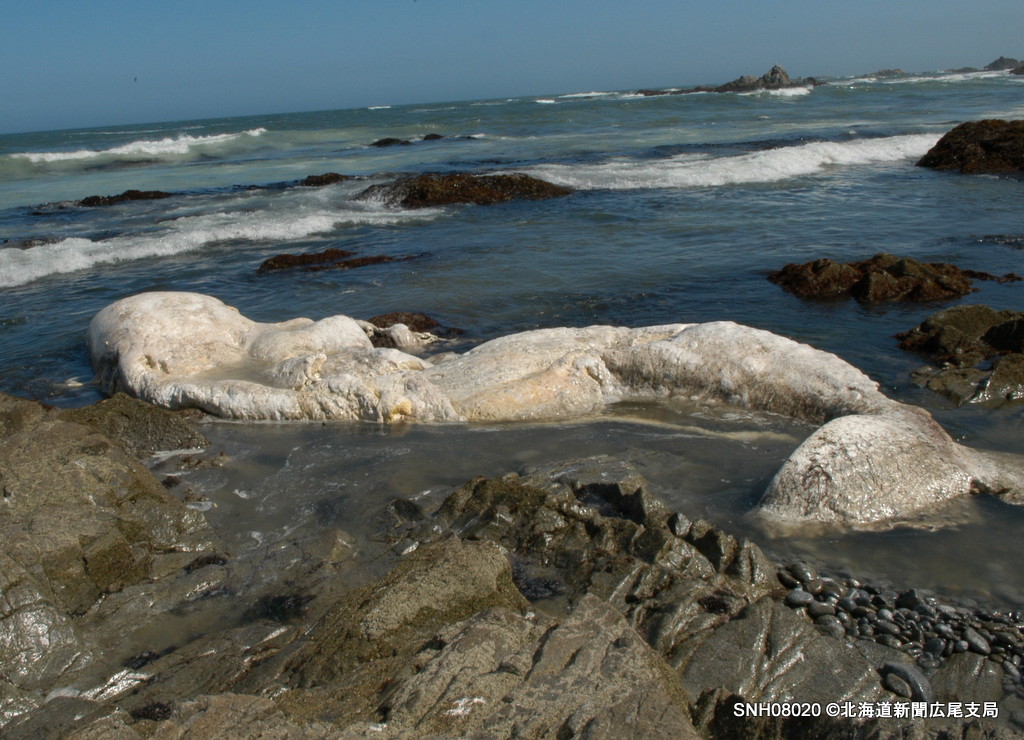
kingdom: Animalia
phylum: Chordata
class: Mammalia
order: Cetacea
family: Physeteridae
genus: Physeter
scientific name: Physeter macrocephalus
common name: Sperm whale
